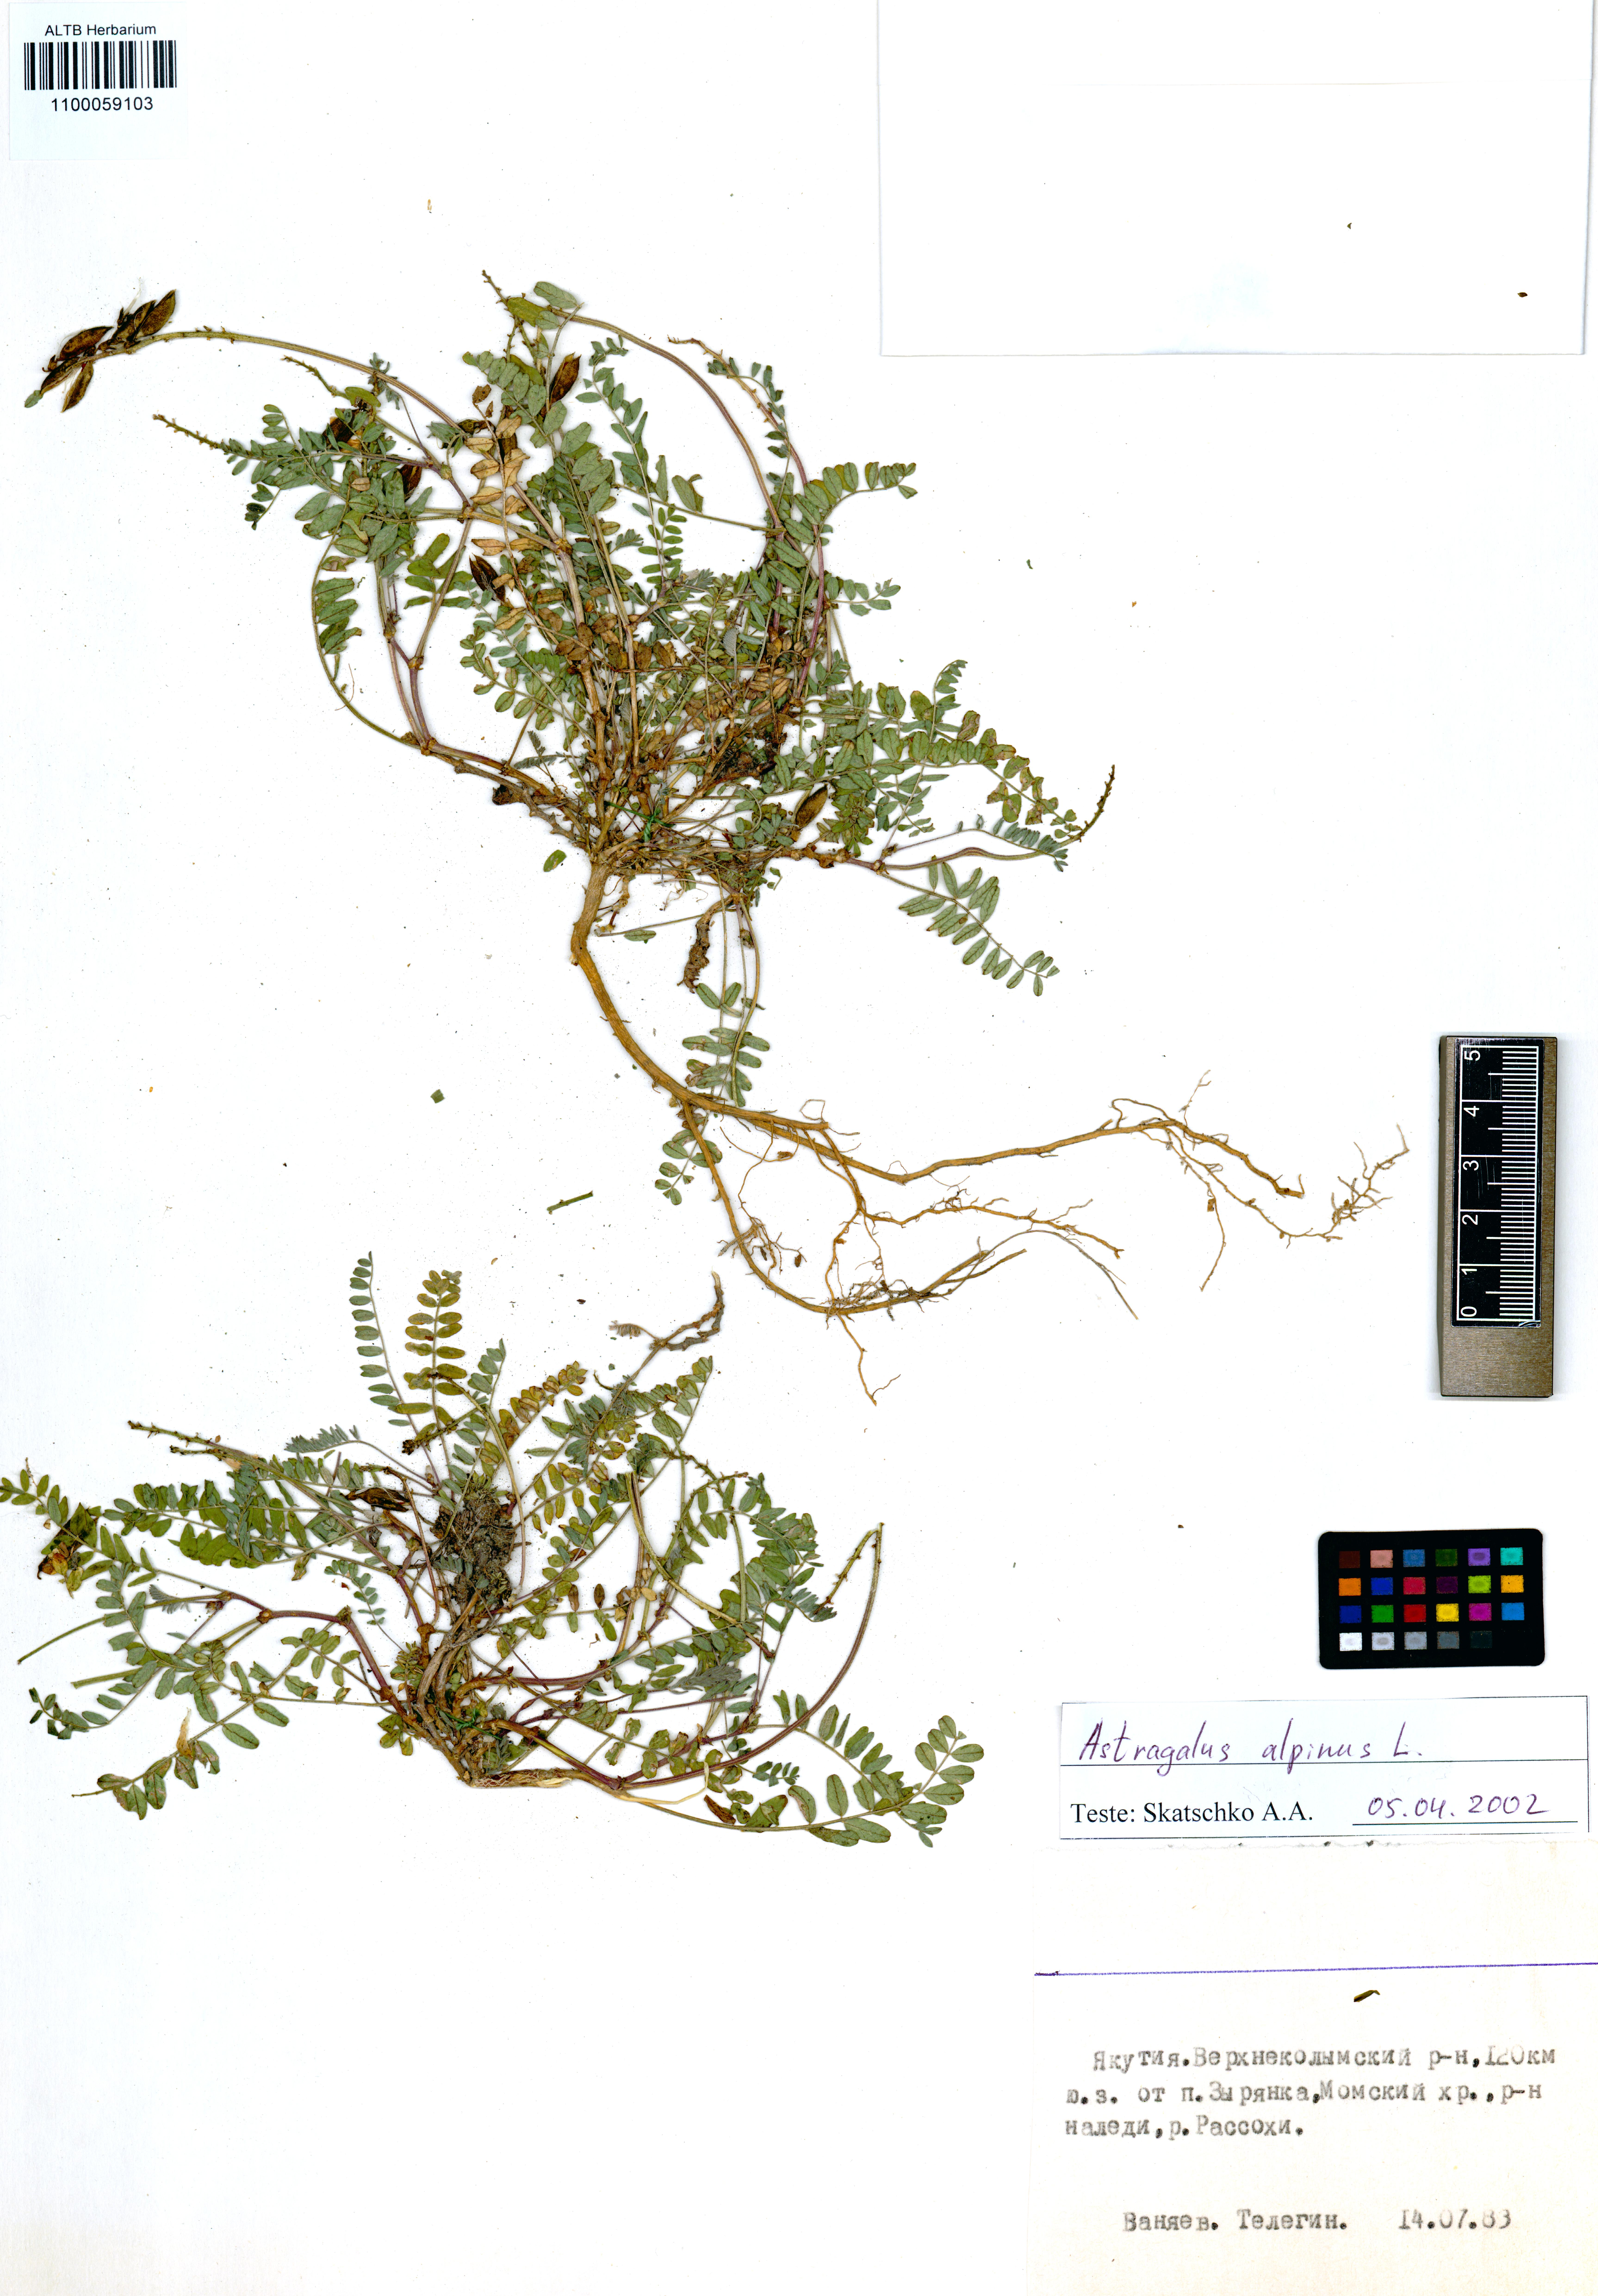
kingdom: Plantae
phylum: Tracheophyta
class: Magnoliopsida
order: Fabales
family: Fabaceae
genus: Astragalus
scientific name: Astragalus alpinus
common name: Alpine milk-vetch
